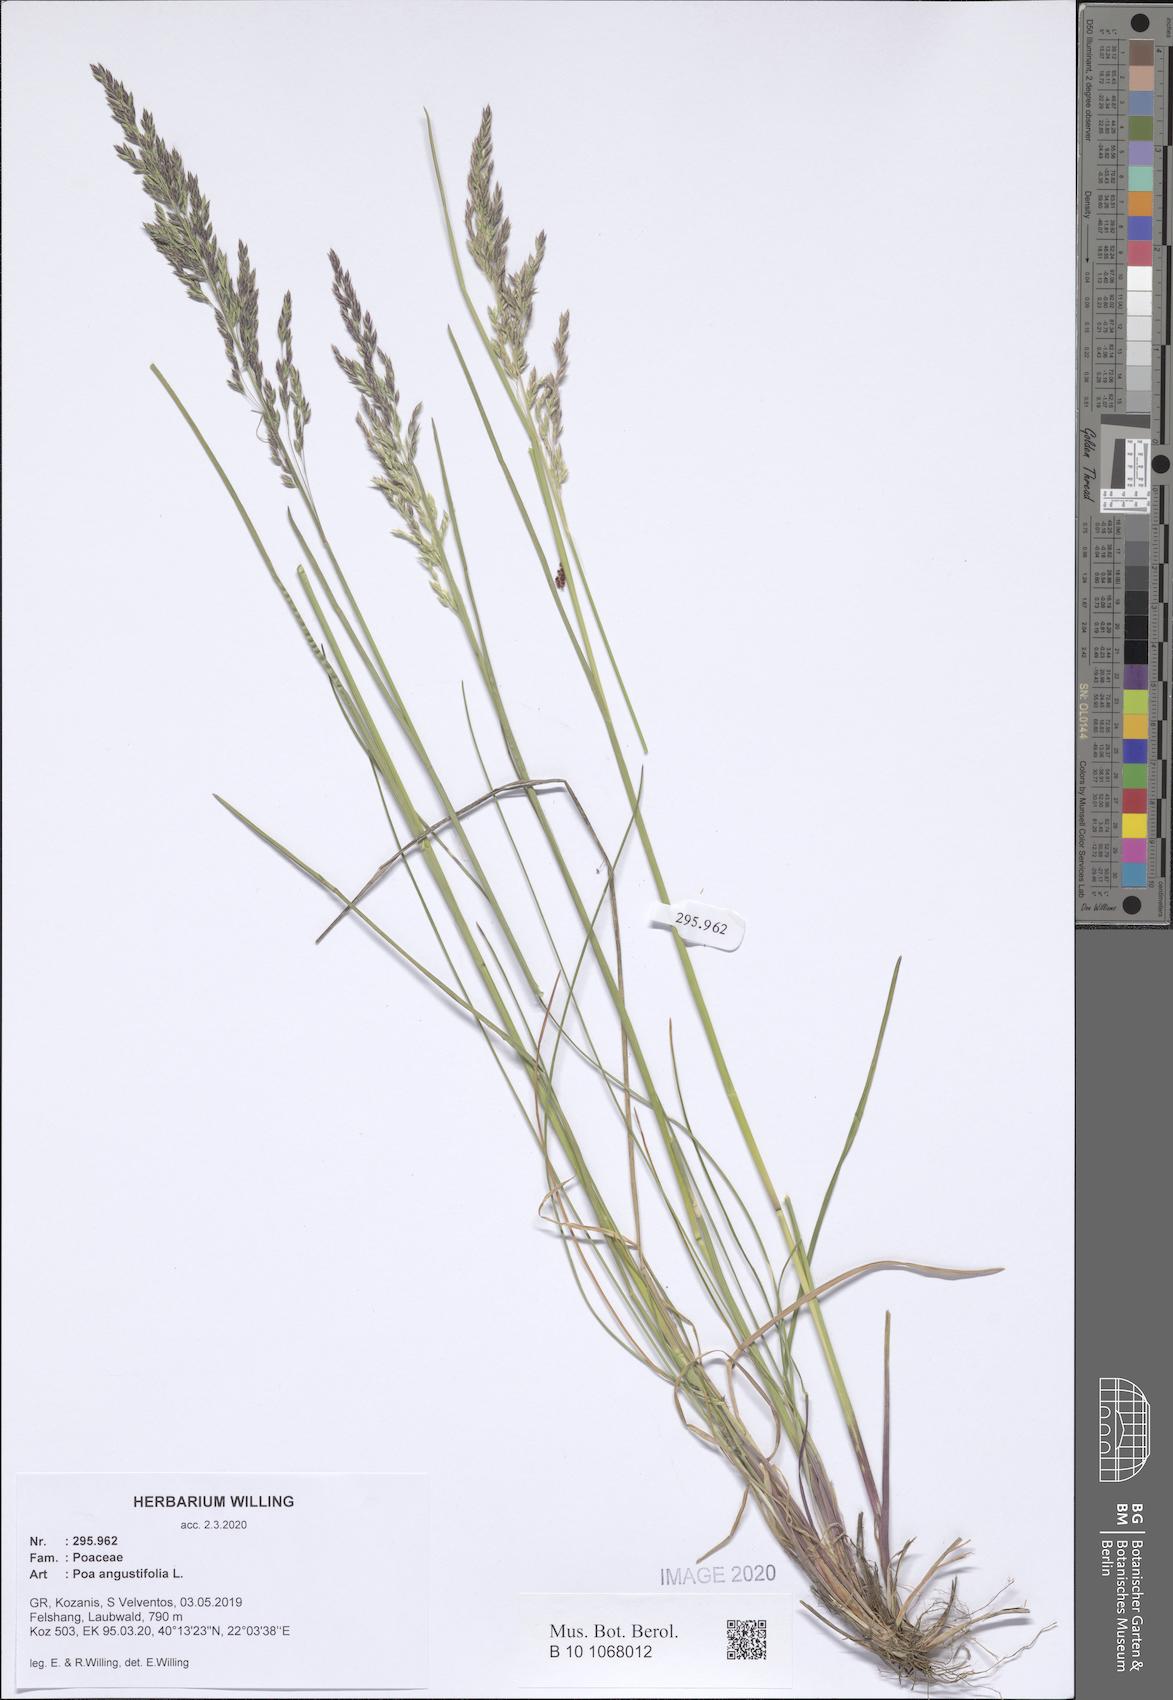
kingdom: Plantae
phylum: Tracheophyta
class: Liliopsida
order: Poales
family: Poaceae
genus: Poa
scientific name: Poa angustifolia
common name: Narrow-leaved meadow-grass
